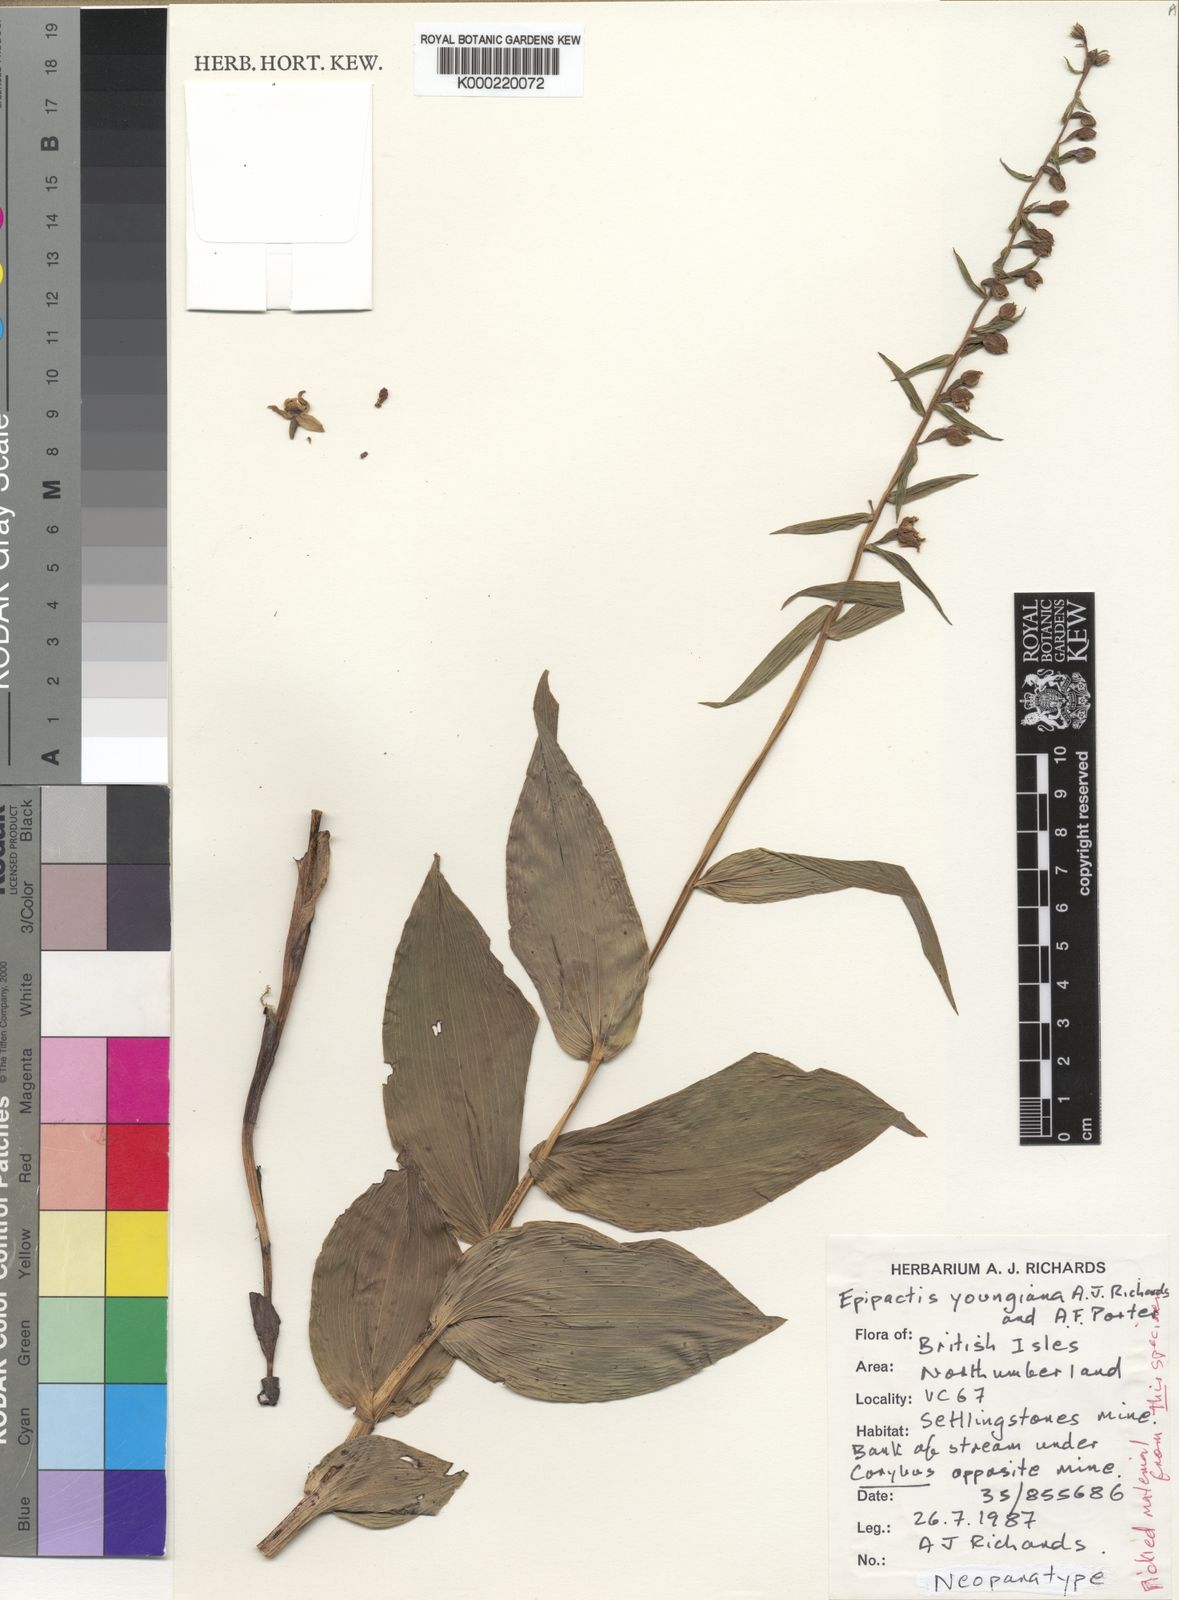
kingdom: Plantae
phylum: Tracheophyta
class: Liliopsida
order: Asparagales
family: Orchidaceae
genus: Epipactis
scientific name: Epipactis helleborine
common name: Broad-leaved helleborine
